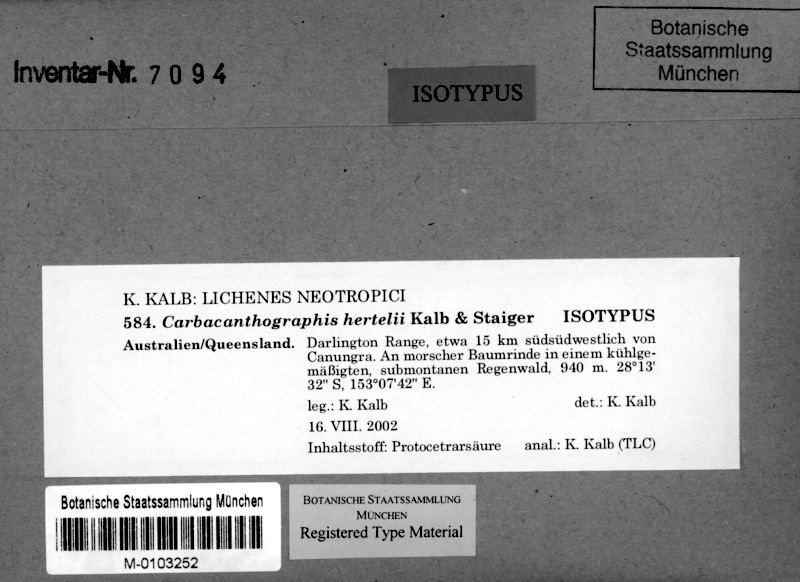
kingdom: Fungi
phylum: Ascomycota
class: Lecanoromycetes
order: Ostropales
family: Graphidaceae
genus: Carbacanthographis
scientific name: Carbacanthographis hertelii
